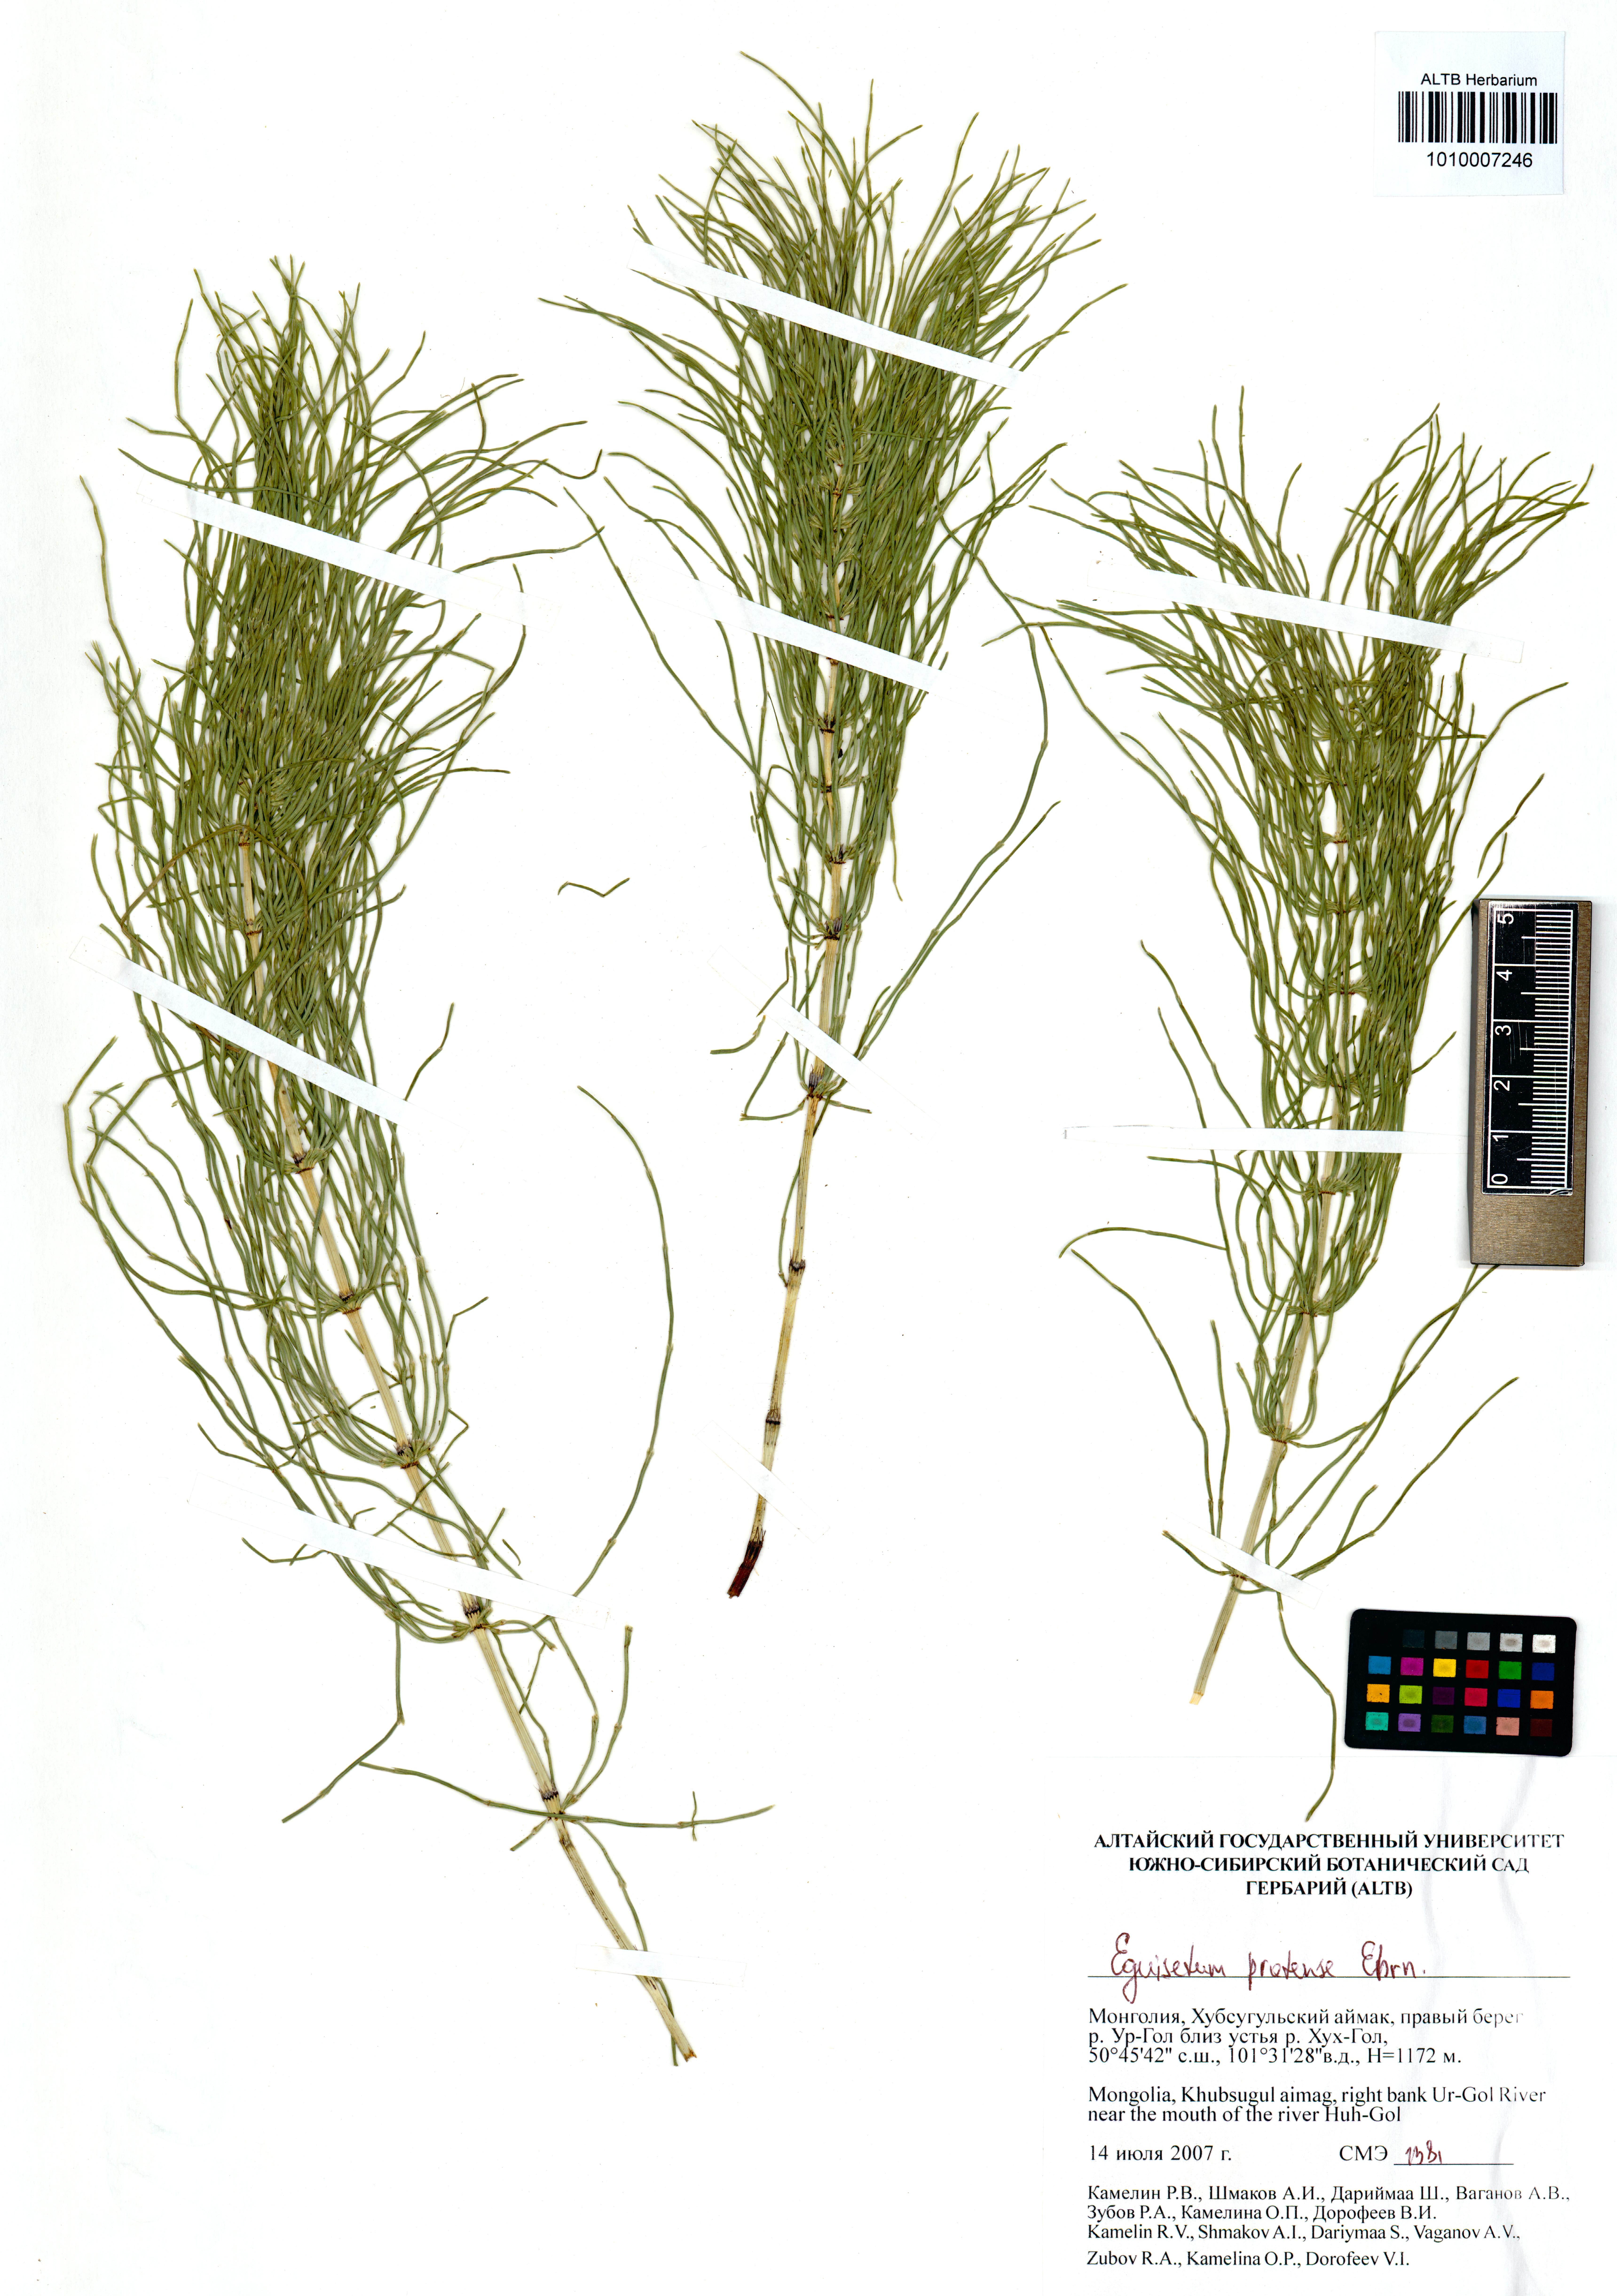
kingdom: Plantae
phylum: Tracheophyta
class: Polypodiopsida
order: Equisetales
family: Equisetaceae
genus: Equisetum
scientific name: Equisetum pratense
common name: Meadow horsetail
